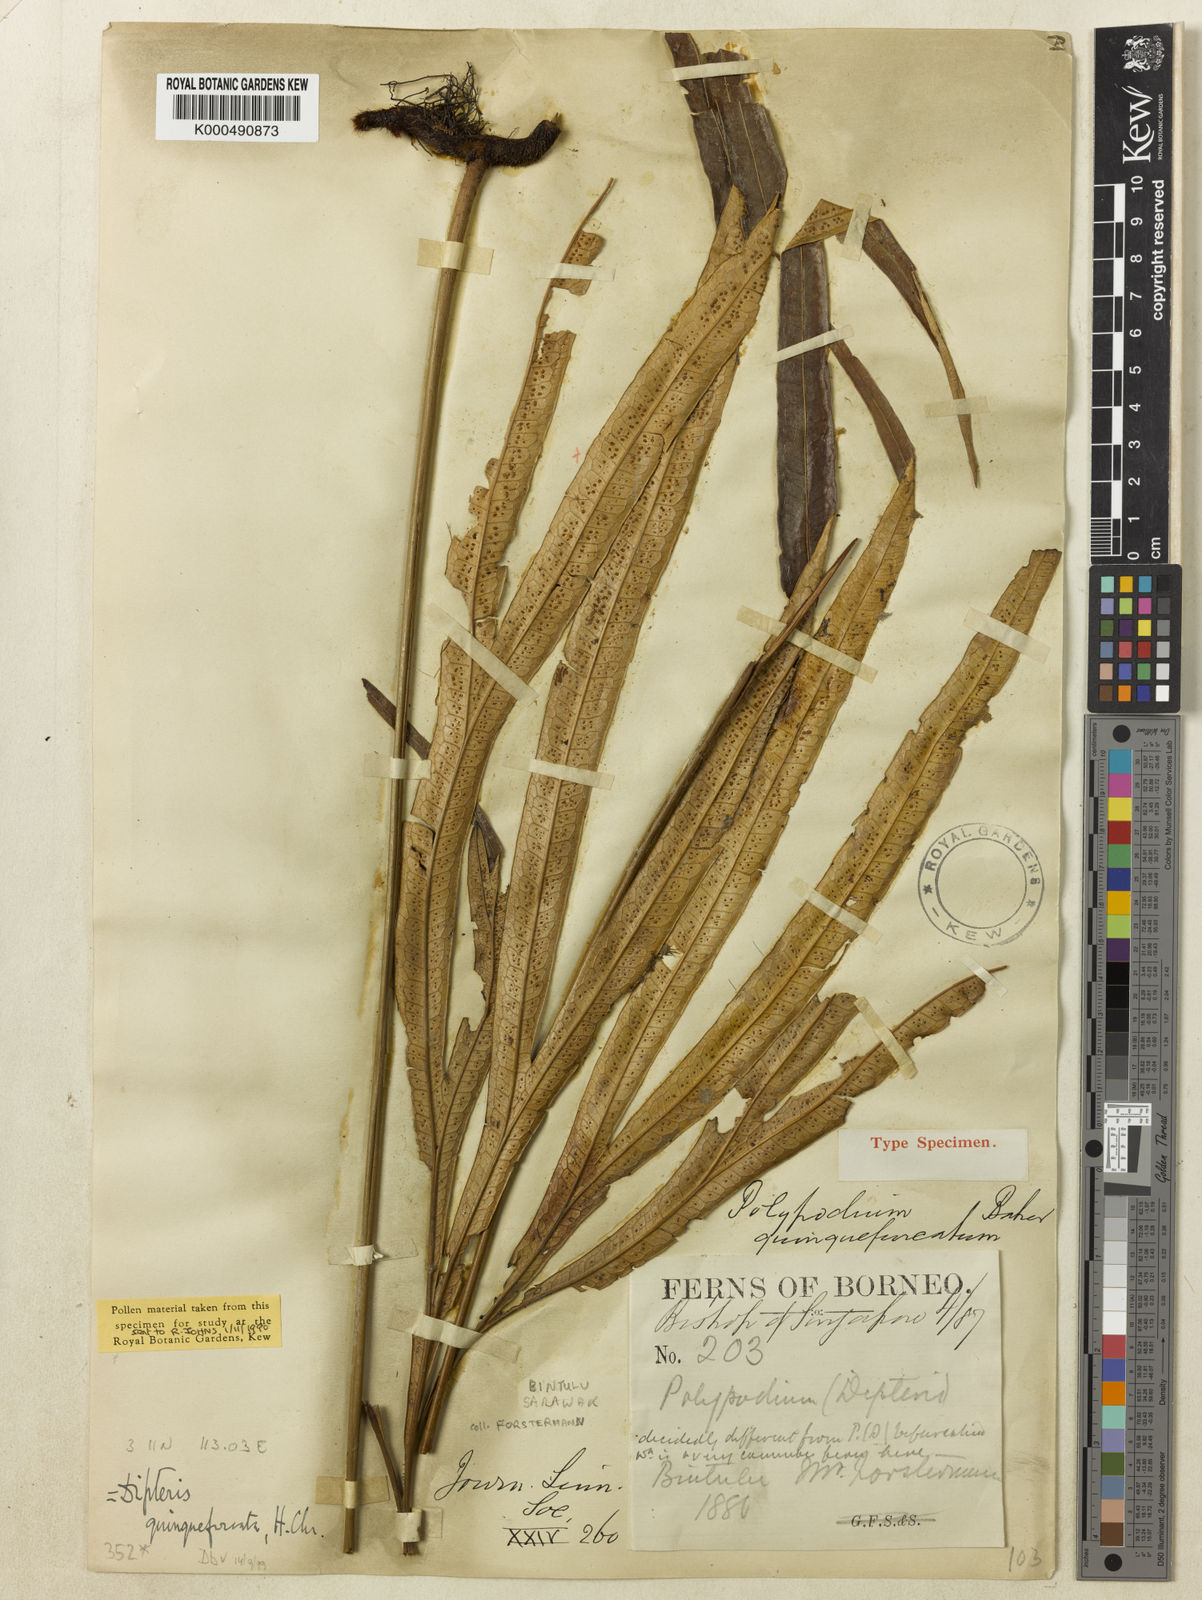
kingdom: Plantae
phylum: Tracheophyta
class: Polypodiopsida
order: Gleicheniales
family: Dipteridaceae
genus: Dipteris
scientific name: Dipteris lobbiana
